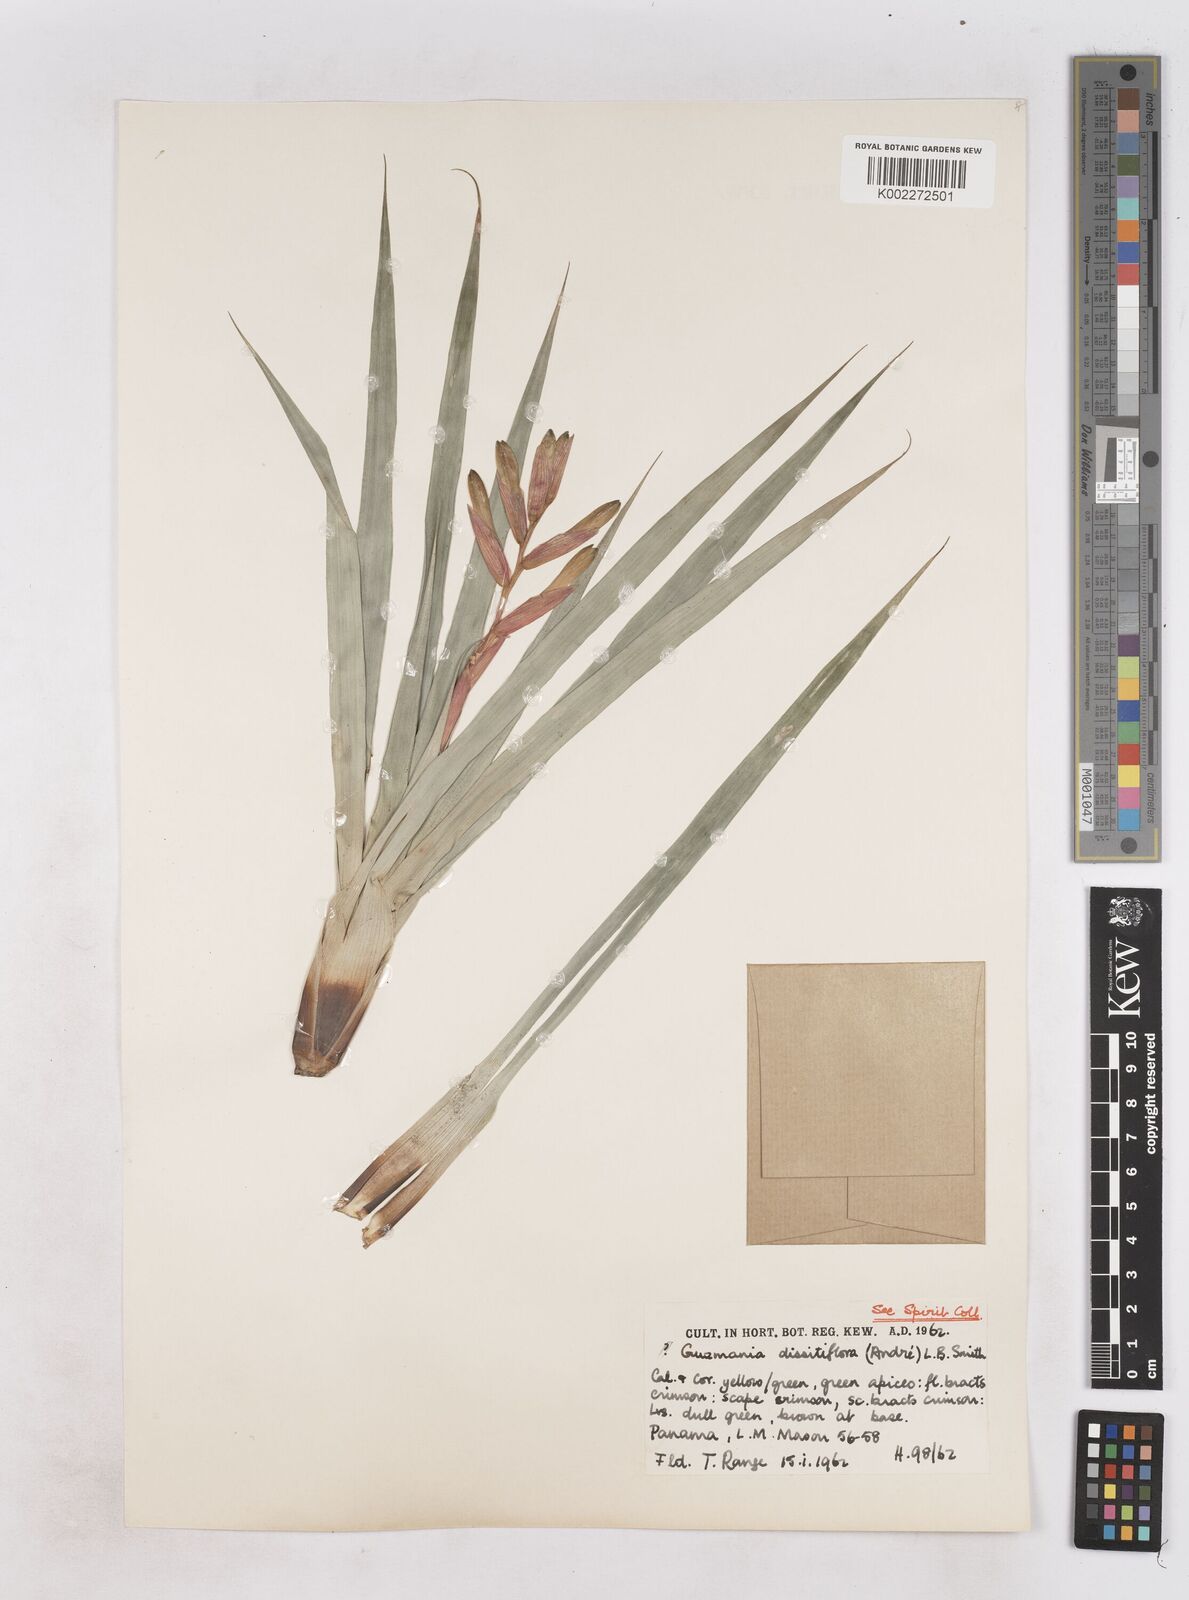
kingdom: Plantae
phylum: Tracheophyta
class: Liliopsida
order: Poales
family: Bromeliaceae
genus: Guzmania
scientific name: Guzmania dissitiflora
